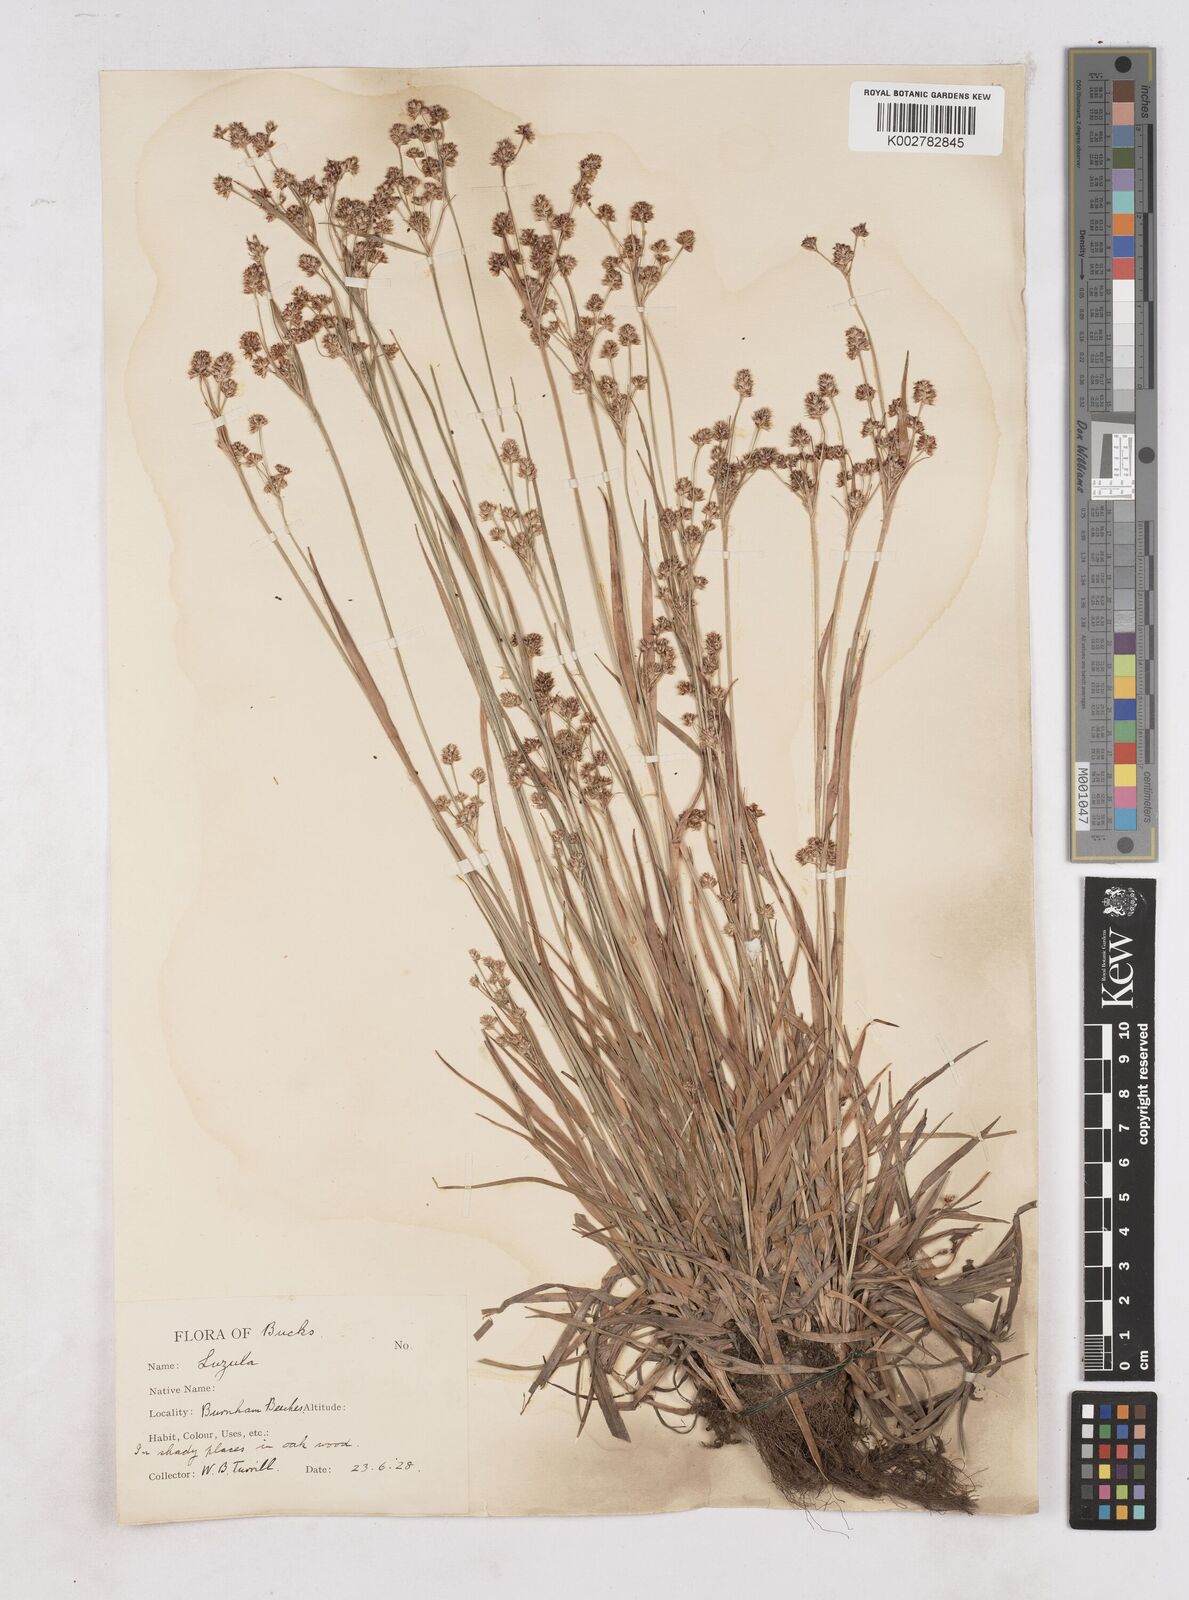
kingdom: Plantae
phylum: Tracheophyta
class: Liliopsida
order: Poales
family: Juncaceae
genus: Luzula
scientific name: Luzula campestris
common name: Field wood-rush
